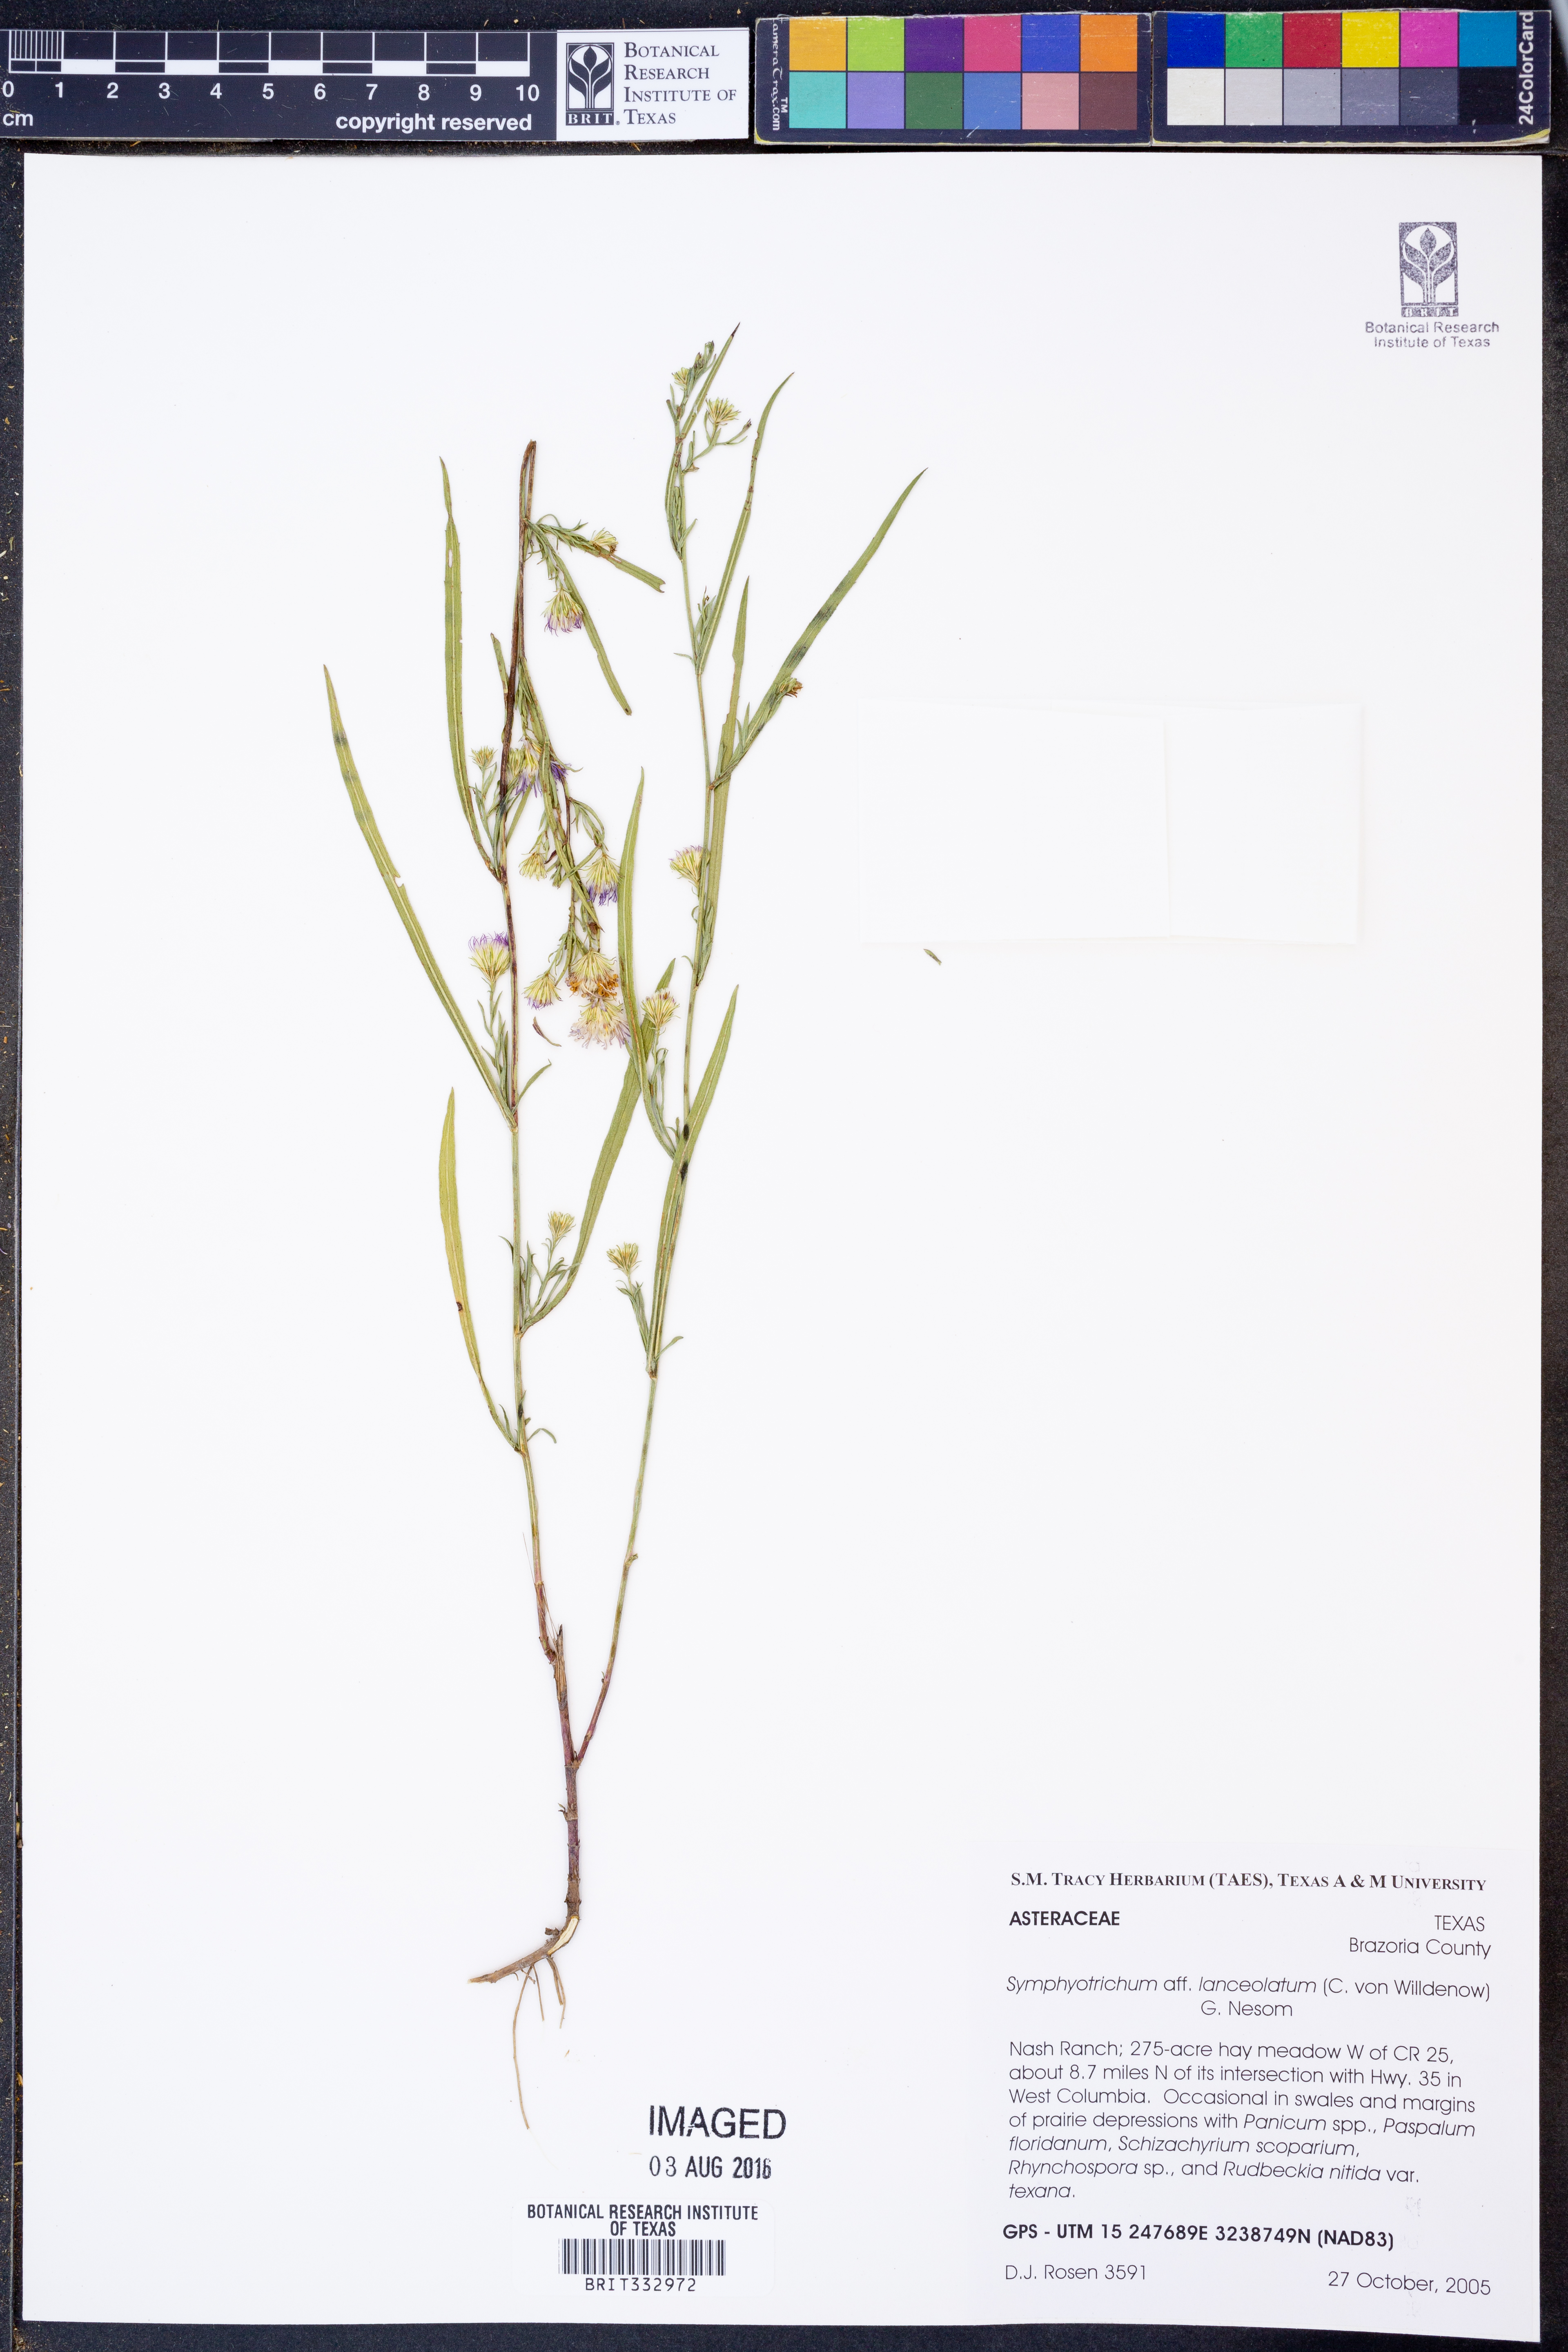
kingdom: Plantae
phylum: Tracheophyta
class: Magnoliopsida
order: Asterales
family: Asteraceae
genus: Symphyotrichum
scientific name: Symphyotrichum lanceolatum
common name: Panicled aster
